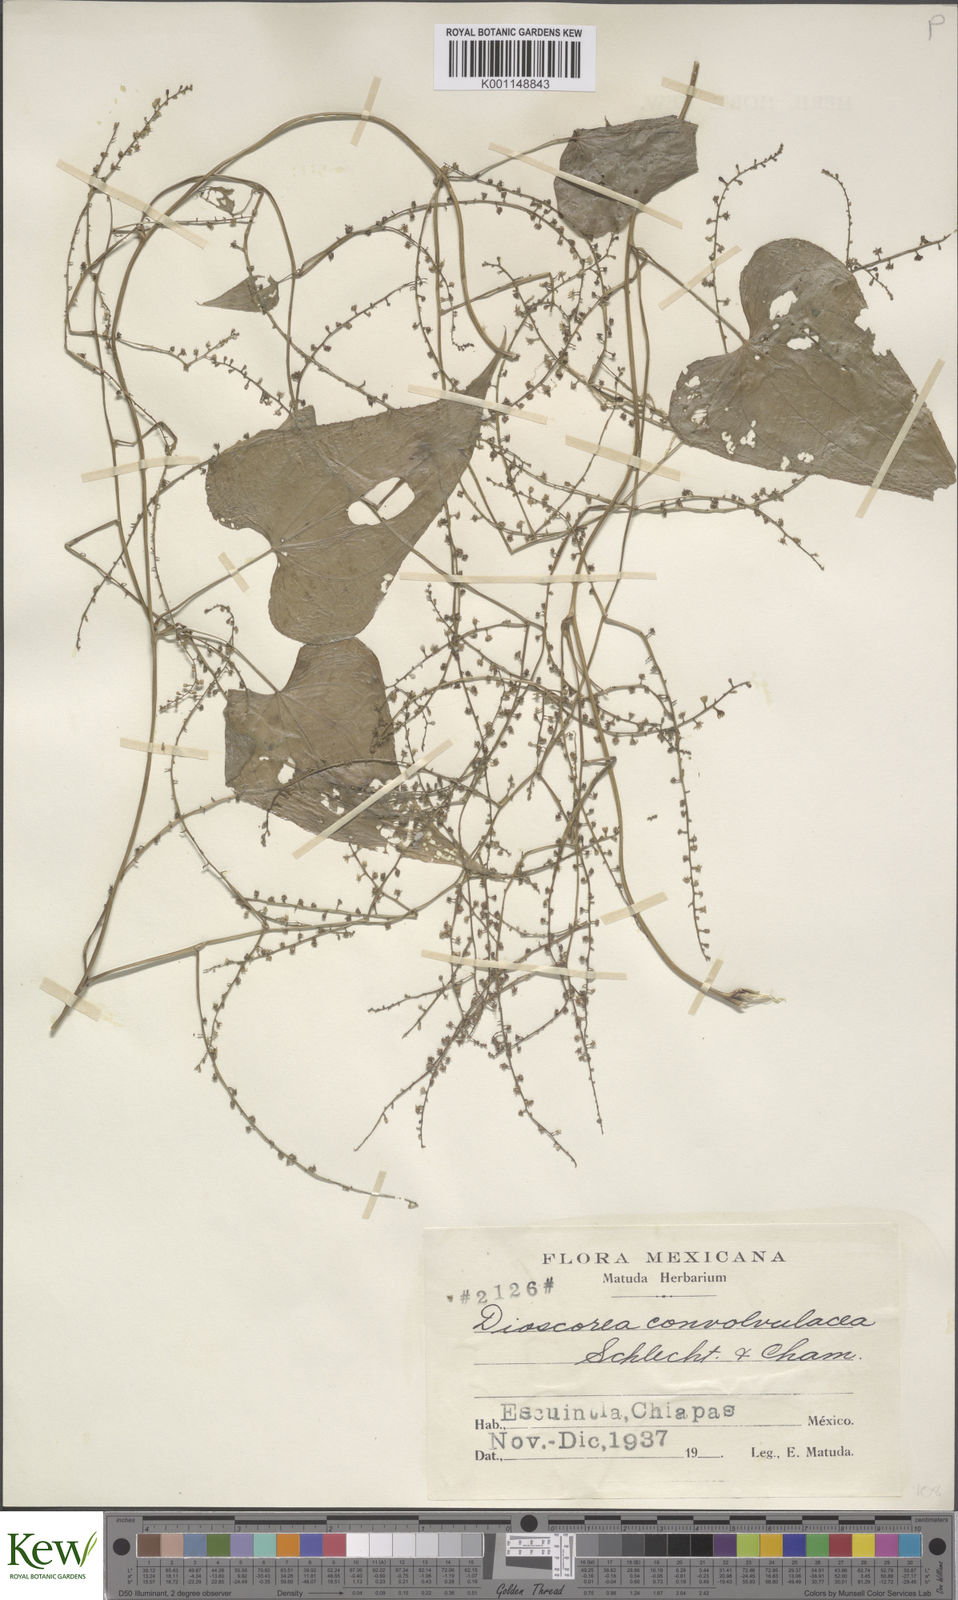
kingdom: Plantae
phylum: Tracheophyta
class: Liliopsida
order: Dioscoreales
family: Dioscoreaceae
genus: Dioscorea
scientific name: Dioscorea convolvulacea
